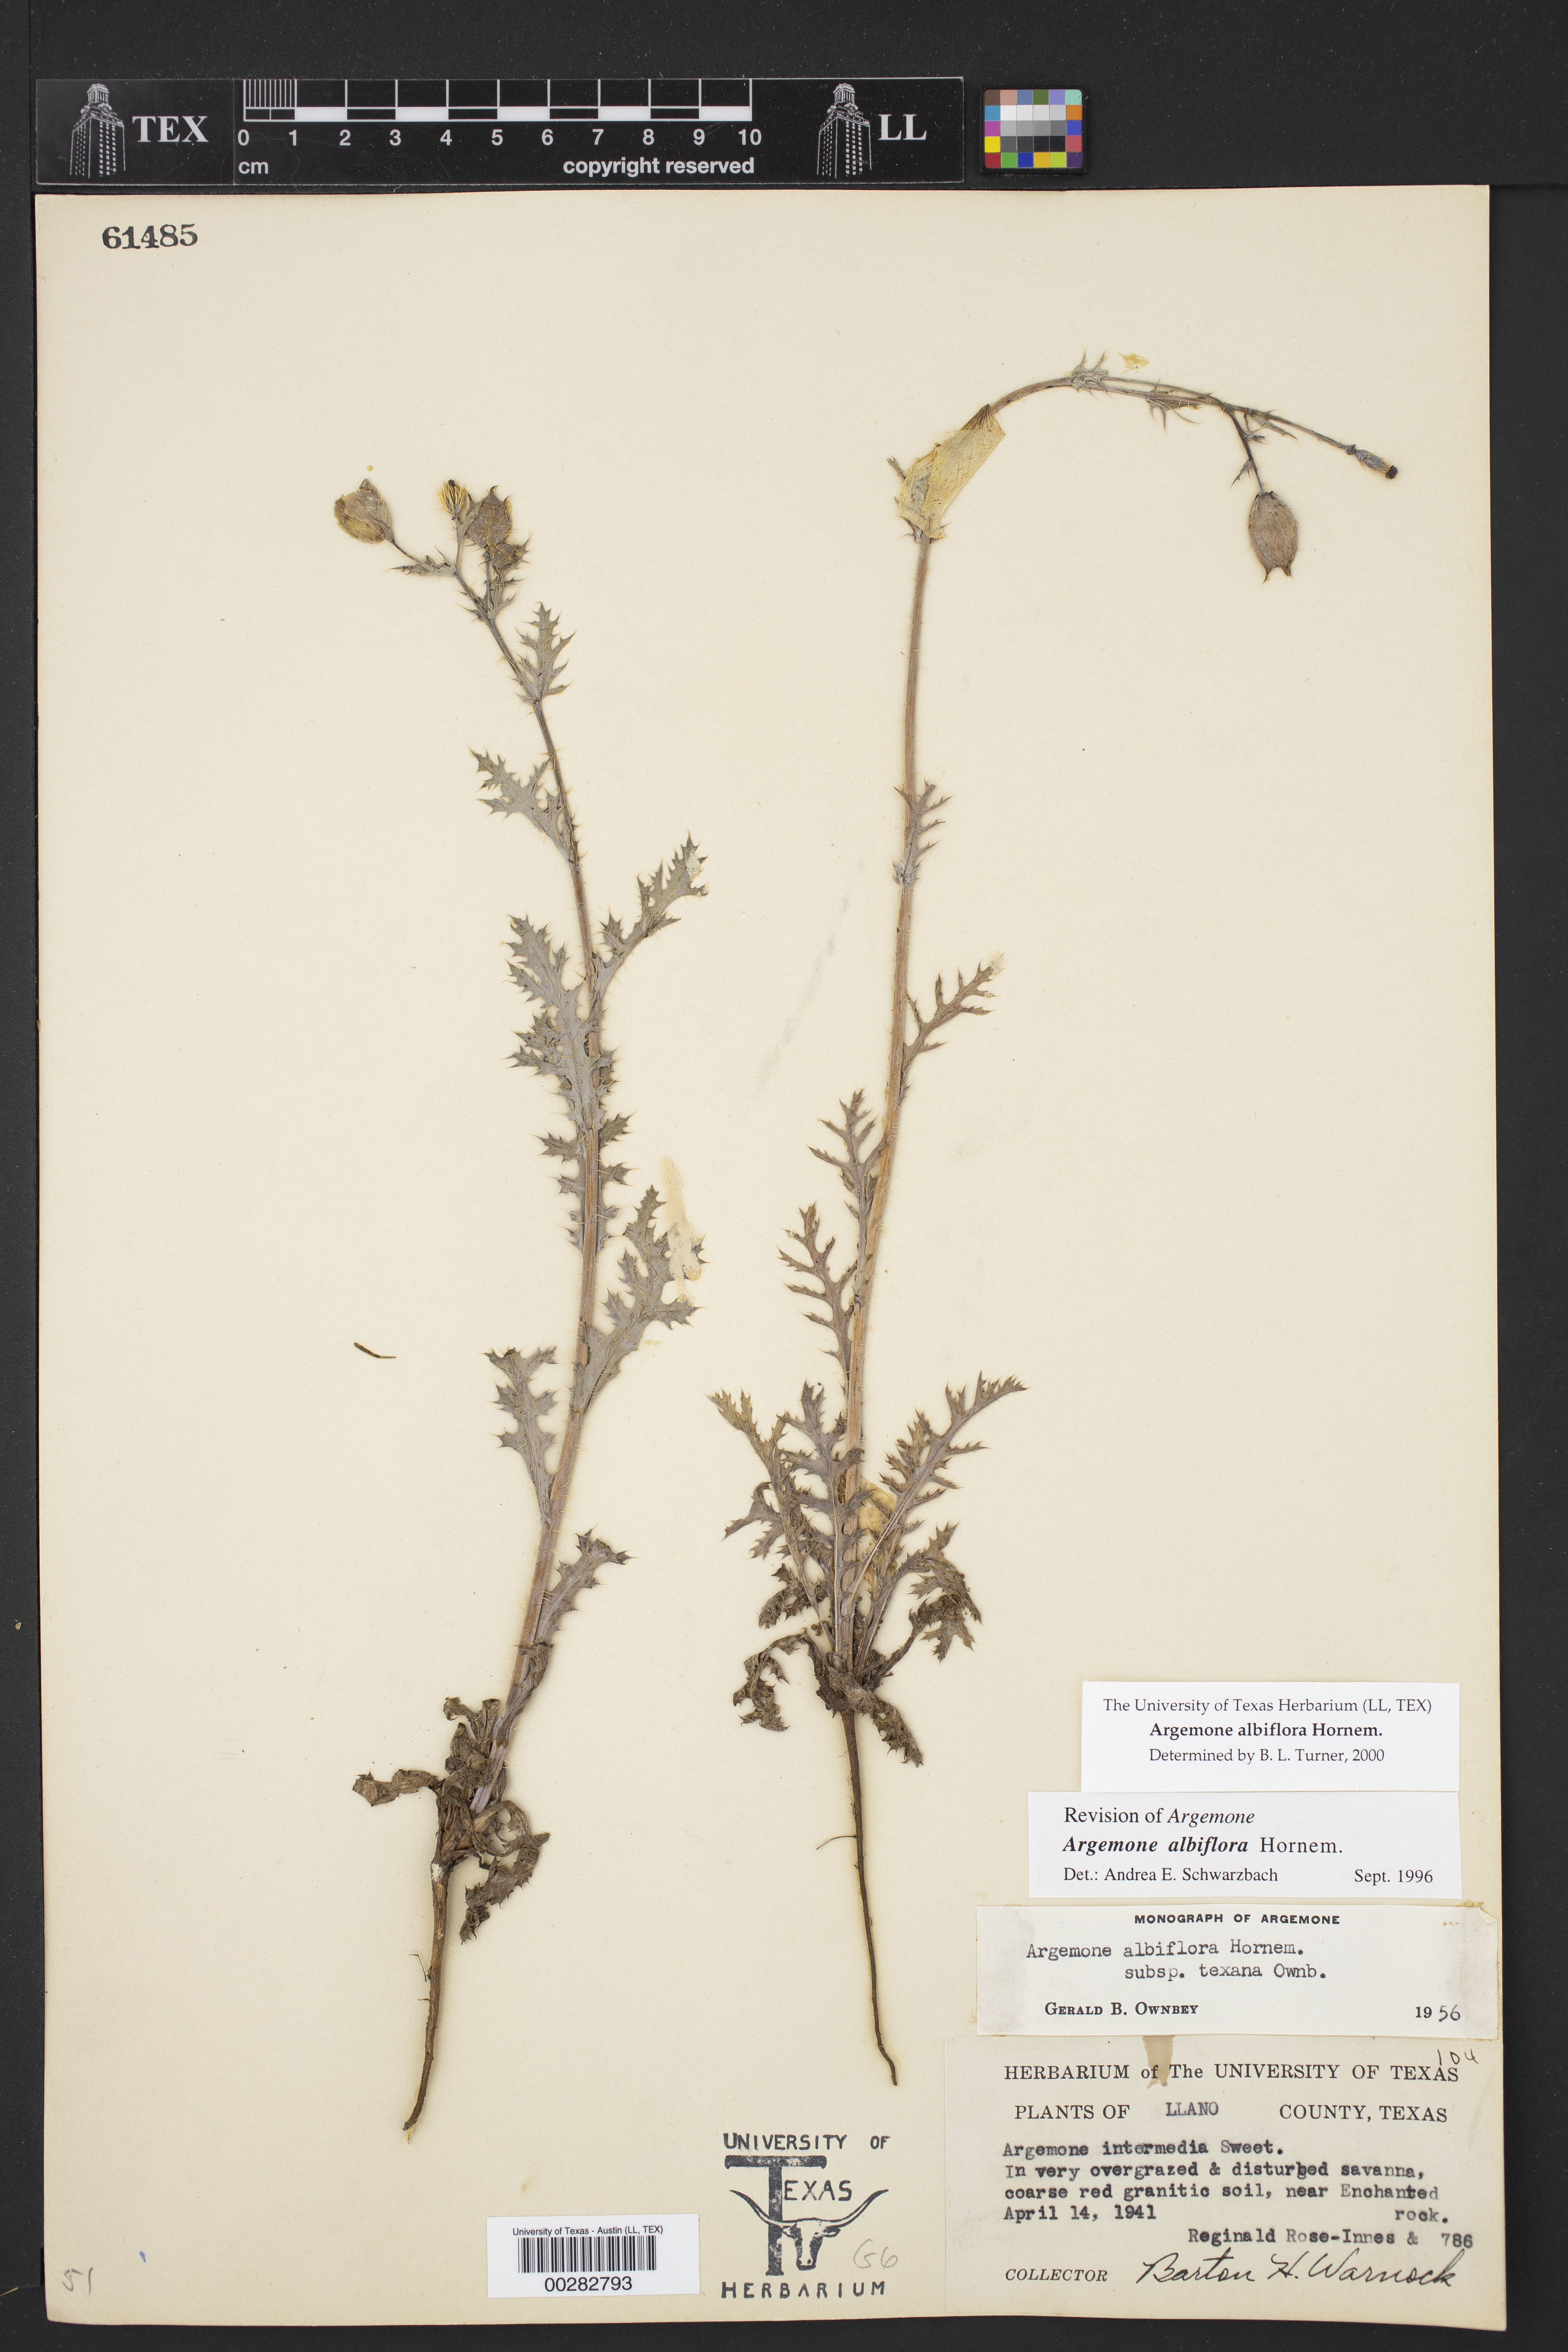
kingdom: Plantae
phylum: Tracheophyta
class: Magnoliopsida
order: Ranunculales
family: Papaveraceae
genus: Argemone
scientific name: Argemone albiflora
